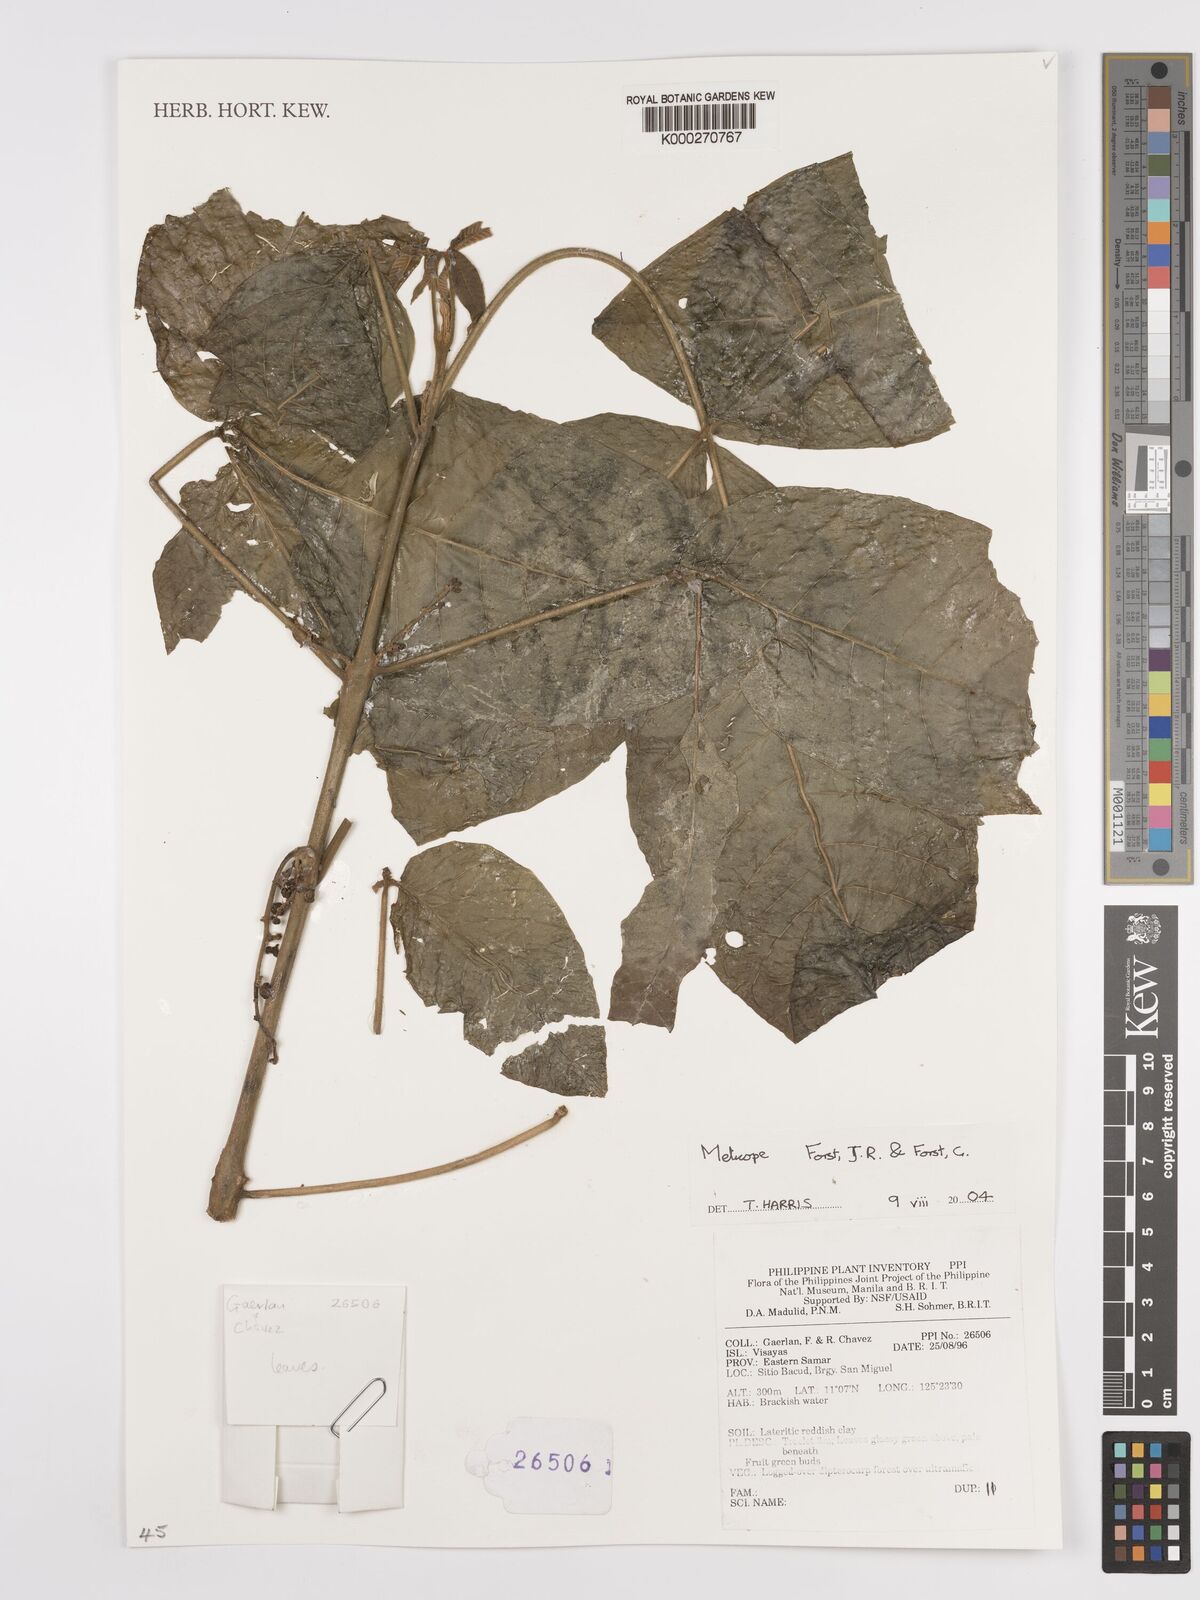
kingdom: Plantae
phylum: Tracheophyta
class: Magnoliopsida
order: Sapindales
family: Rutaceae
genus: Melicope
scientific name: Melicope
